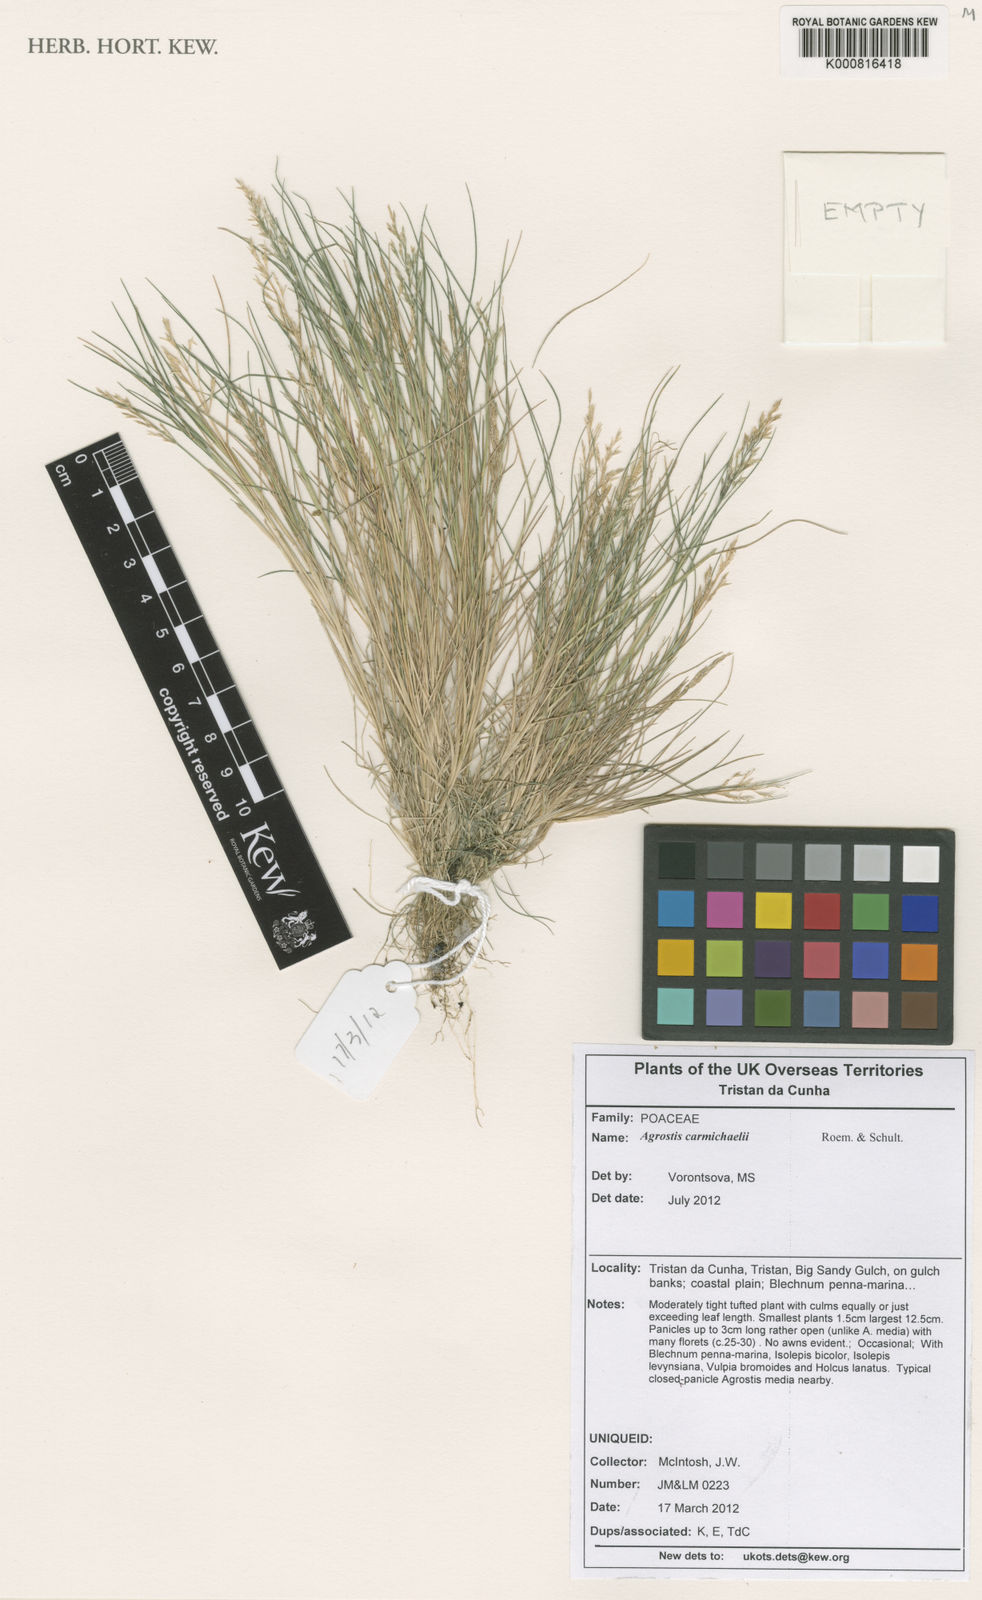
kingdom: Plantae
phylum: Tracheophyta
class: Liliopsida
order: Poales
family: Poaceae
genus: Agrostis
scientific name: Agrostis carmichaelii
